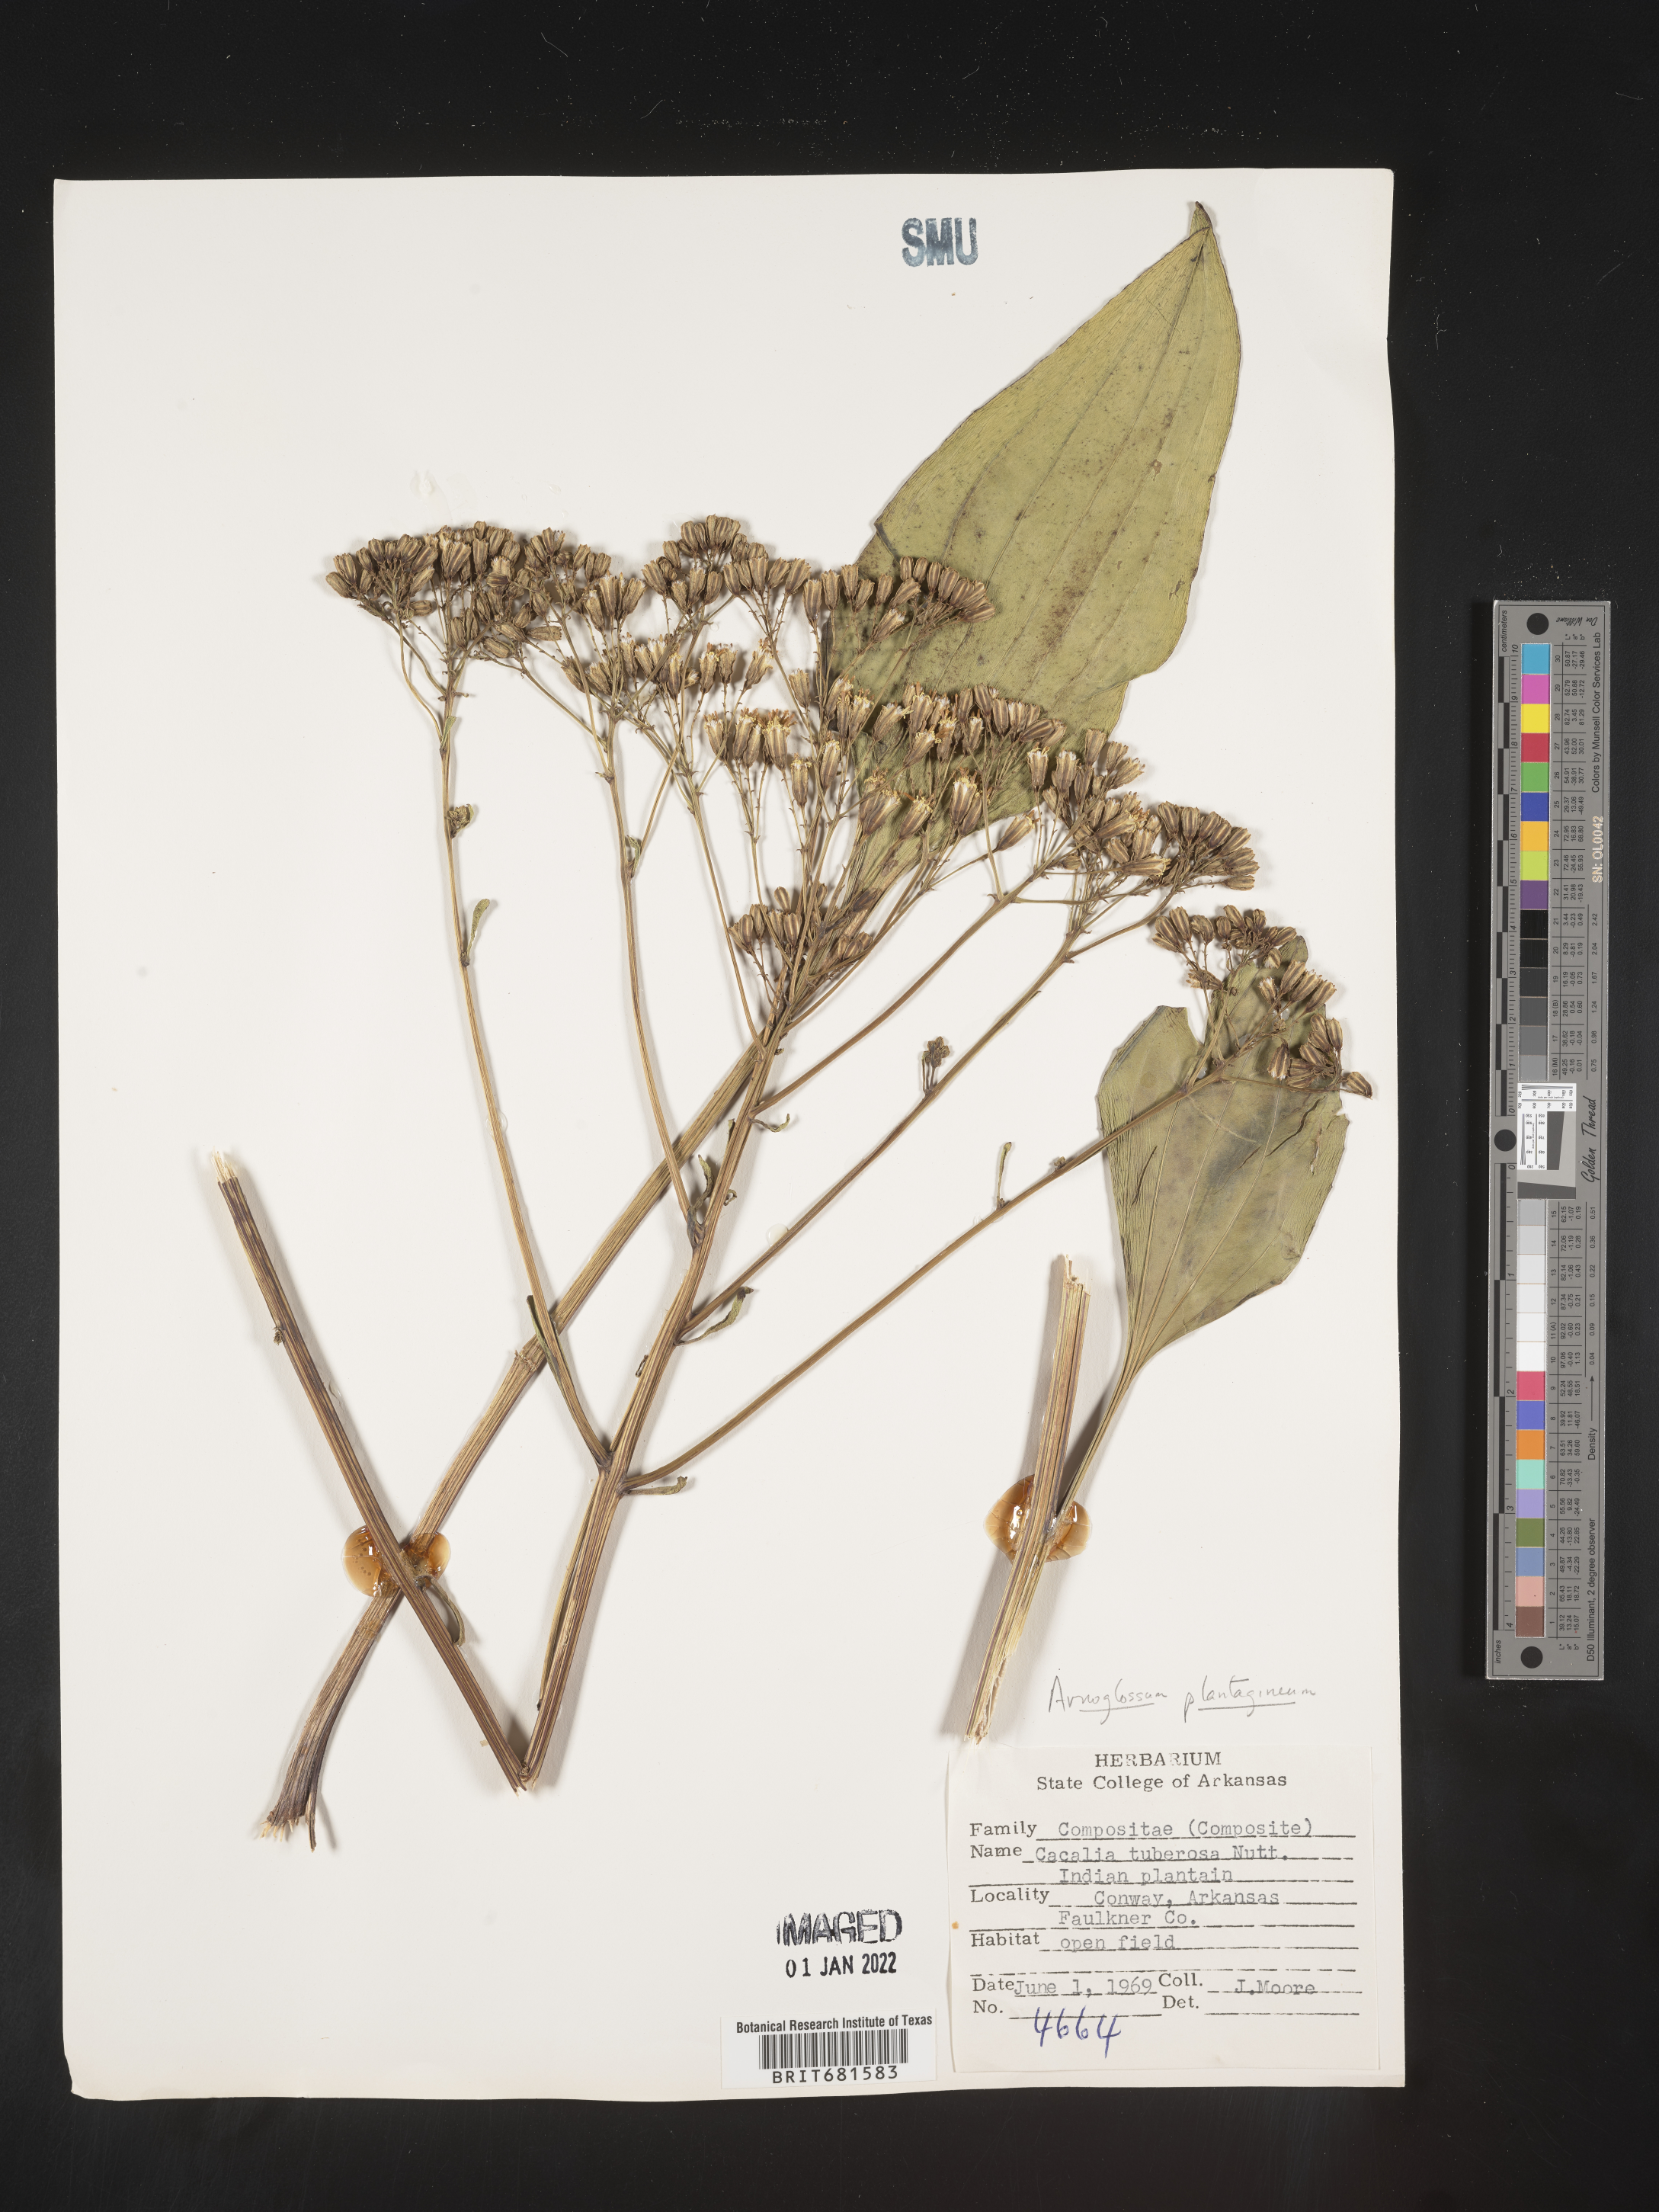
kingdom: Plantae
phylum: Tracheophyta
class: Magnoliopsida
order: Asterales
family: Asteraceae
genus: Arnoglossum
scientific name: Arnoglossum plantagineum
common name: Groove-stemmed indian-plantain
